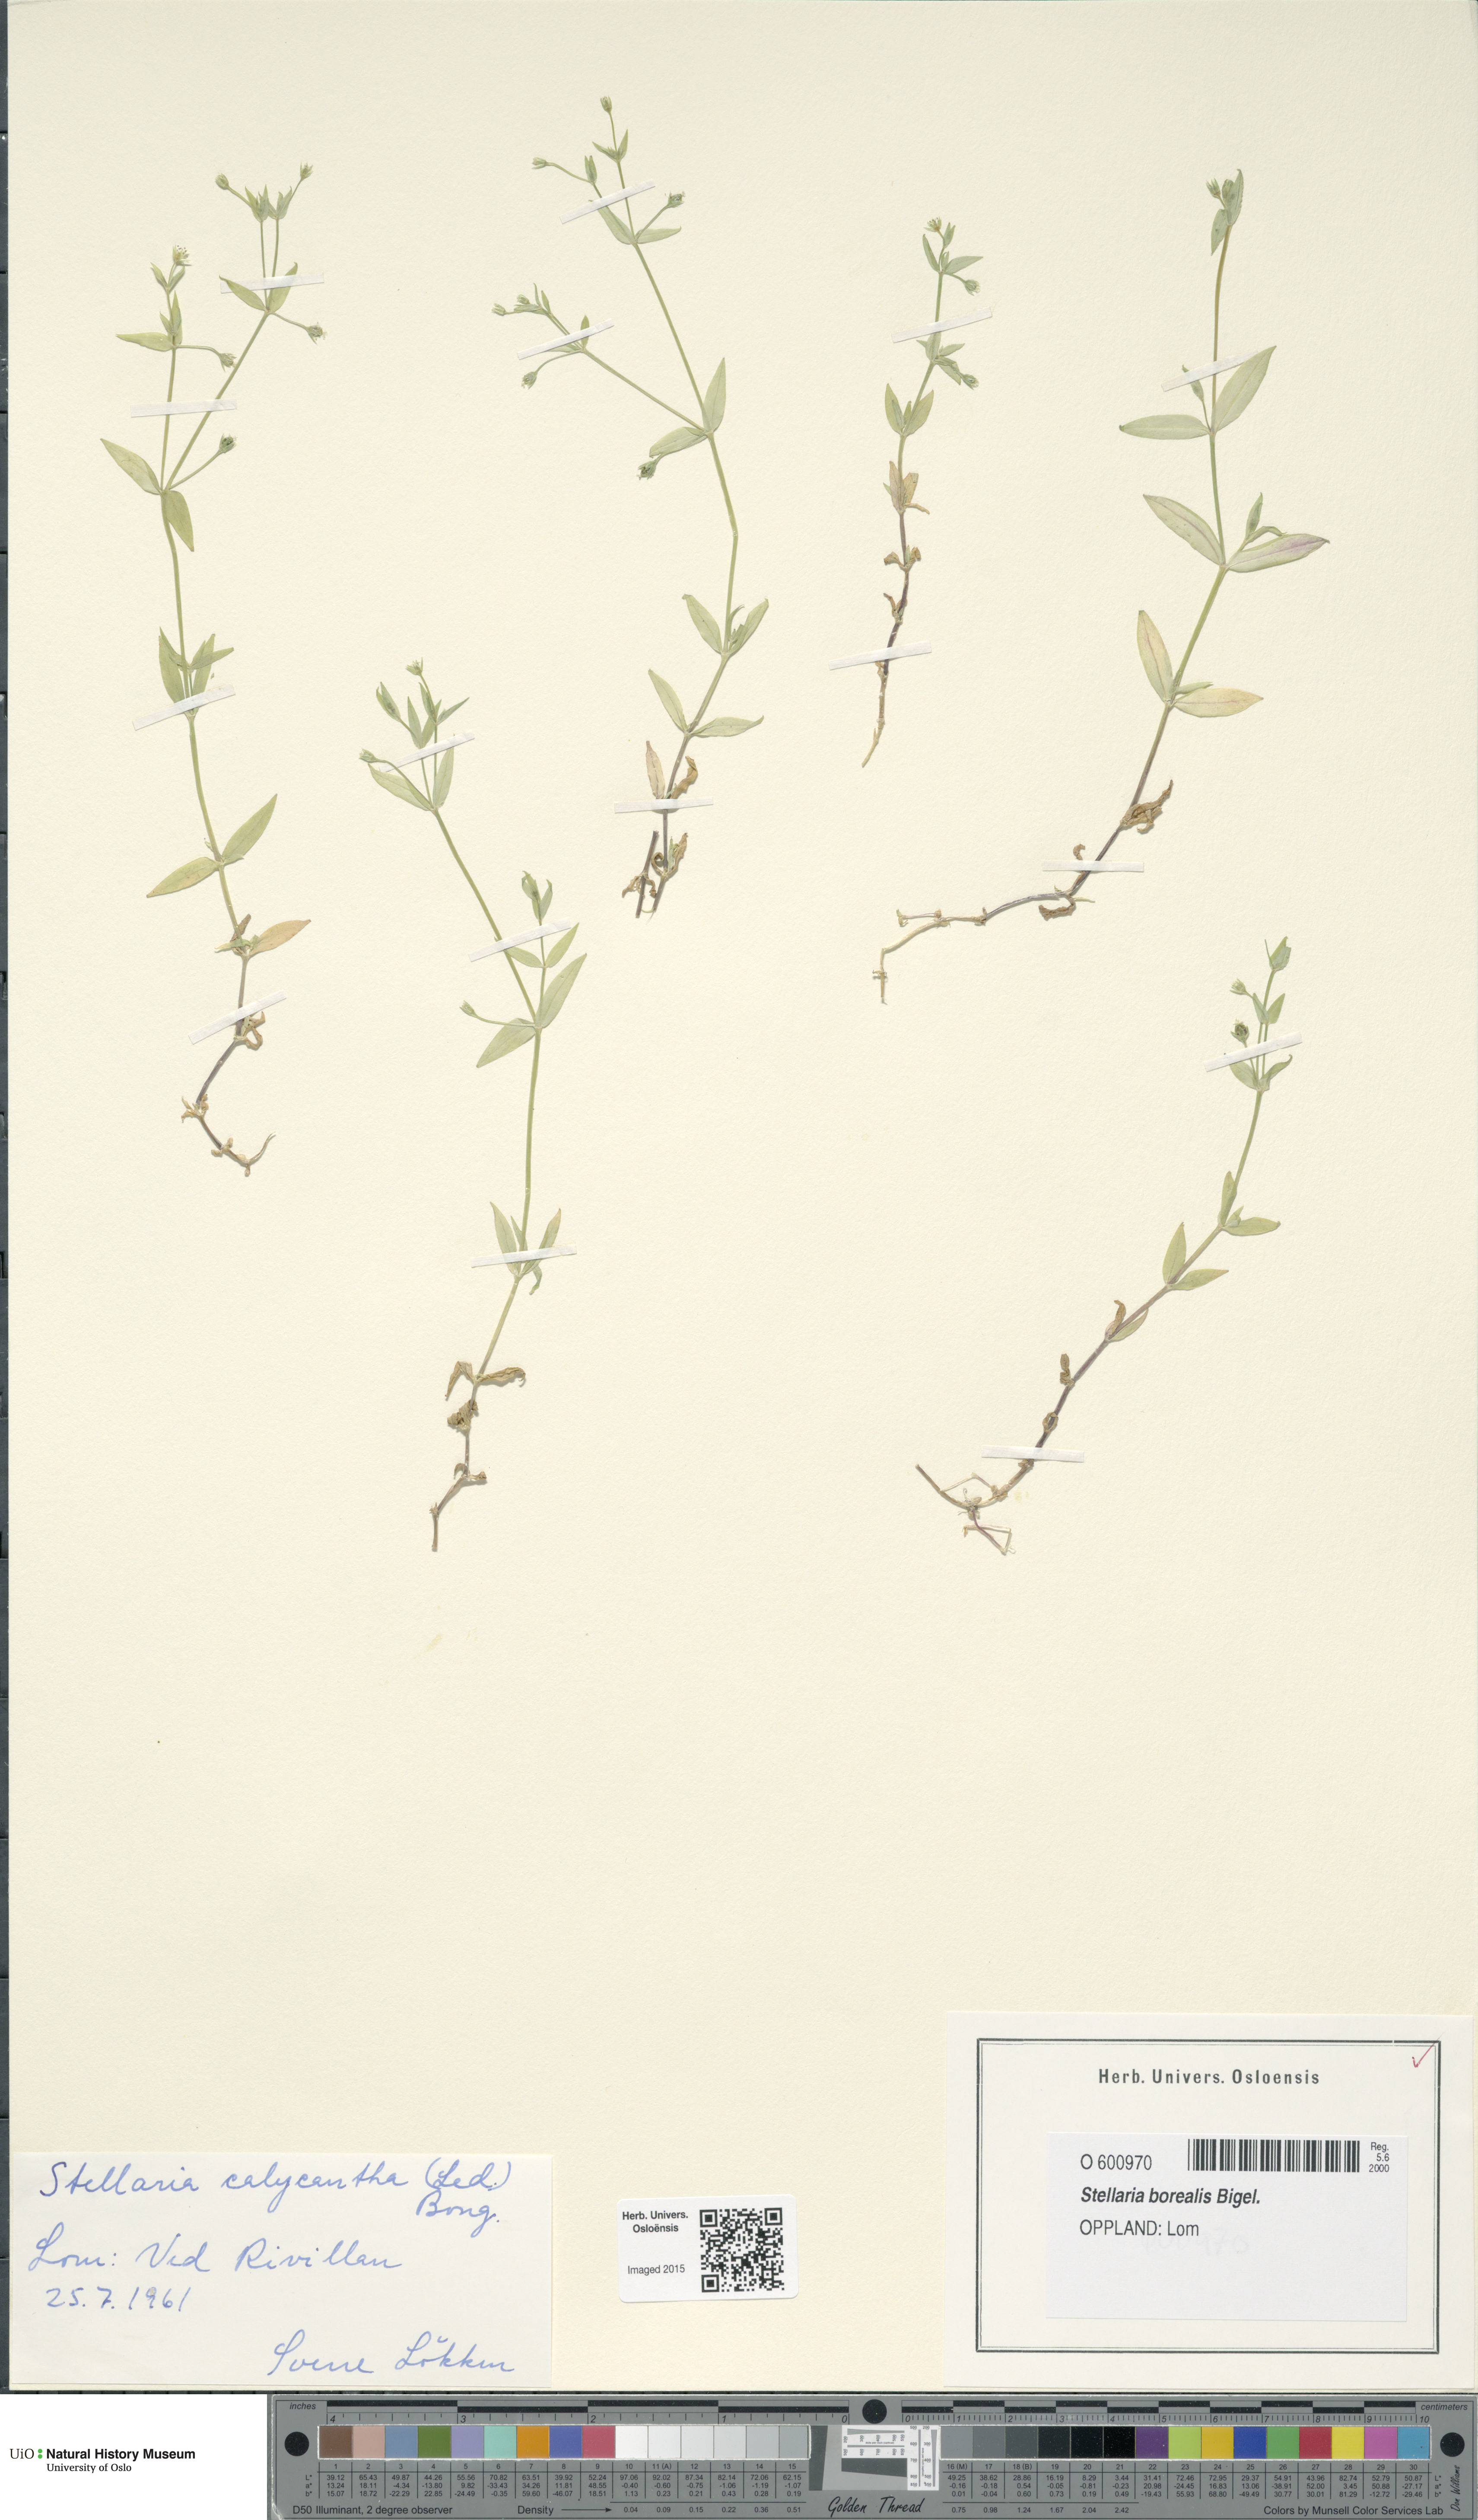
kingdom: Plantae
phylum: Tracheophyta
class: Magnoliopsida
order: Caryophyllales
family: Caryophyllaceae
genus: Stellaria
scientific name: Stellaria borealis
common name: Boreal starwort
